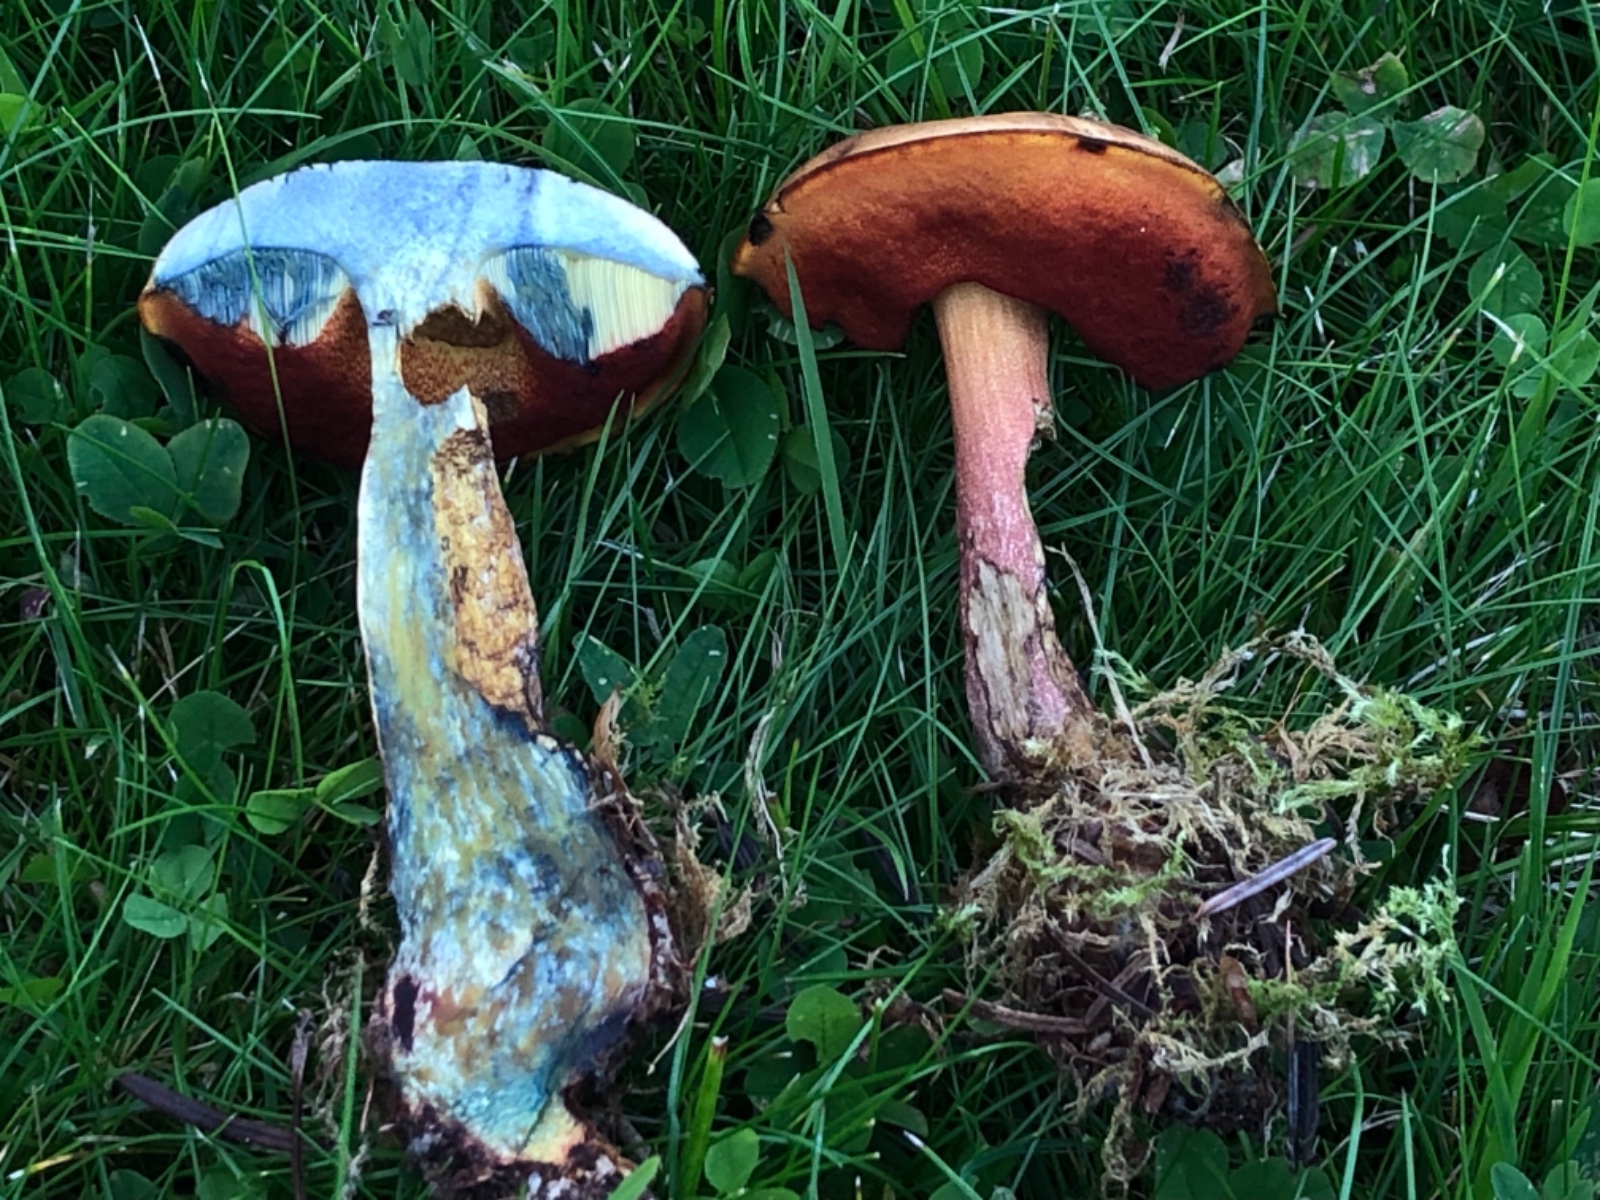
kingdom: Fungi
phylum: Basidiomycota
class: Agaricomycetes
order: Boletales
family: Boletaceae
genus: Neoboletus
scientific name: Neoboletus erythropus
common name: punktstokket indigorørhat
